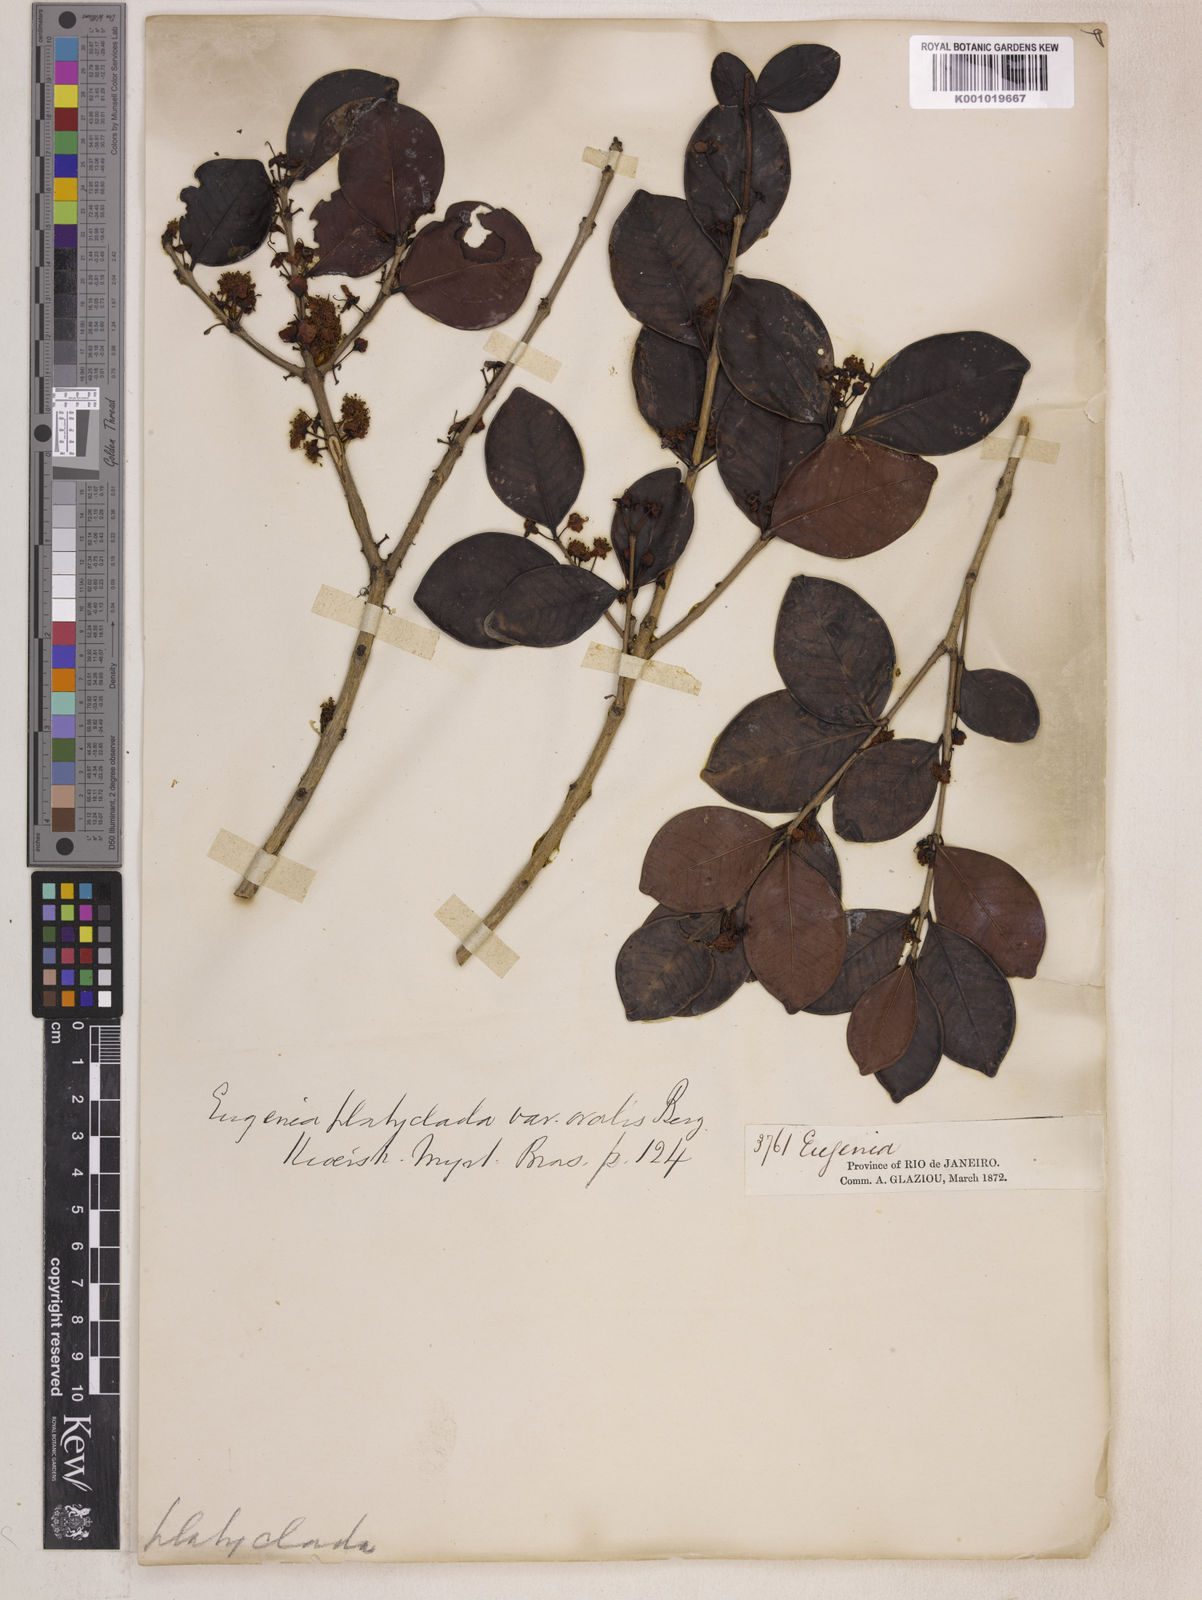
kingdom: Plantae
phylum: Tracheophyta
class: Magnoliopsida
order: Myrtales
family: Myrtaceae
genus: Eugenia
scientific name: Eugenia punicifolia
